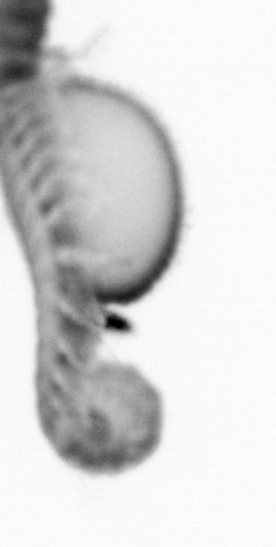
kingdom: Animalia
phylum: Annelida
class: Polychaeta
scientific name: Polychaeta
